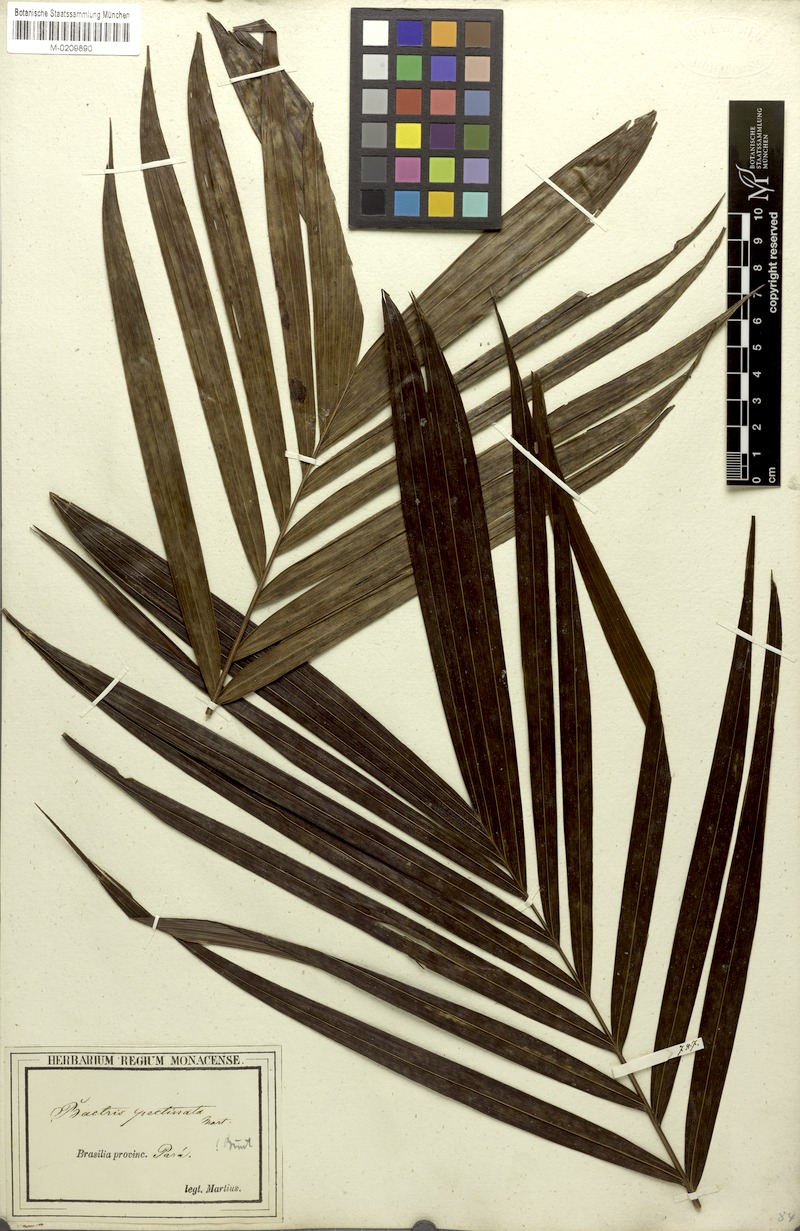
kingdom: Plantae
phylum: Tracheophyta
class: Liliopsida
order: Arecales
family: Arecaceae
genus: Bactris
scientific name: Bactris hirta
